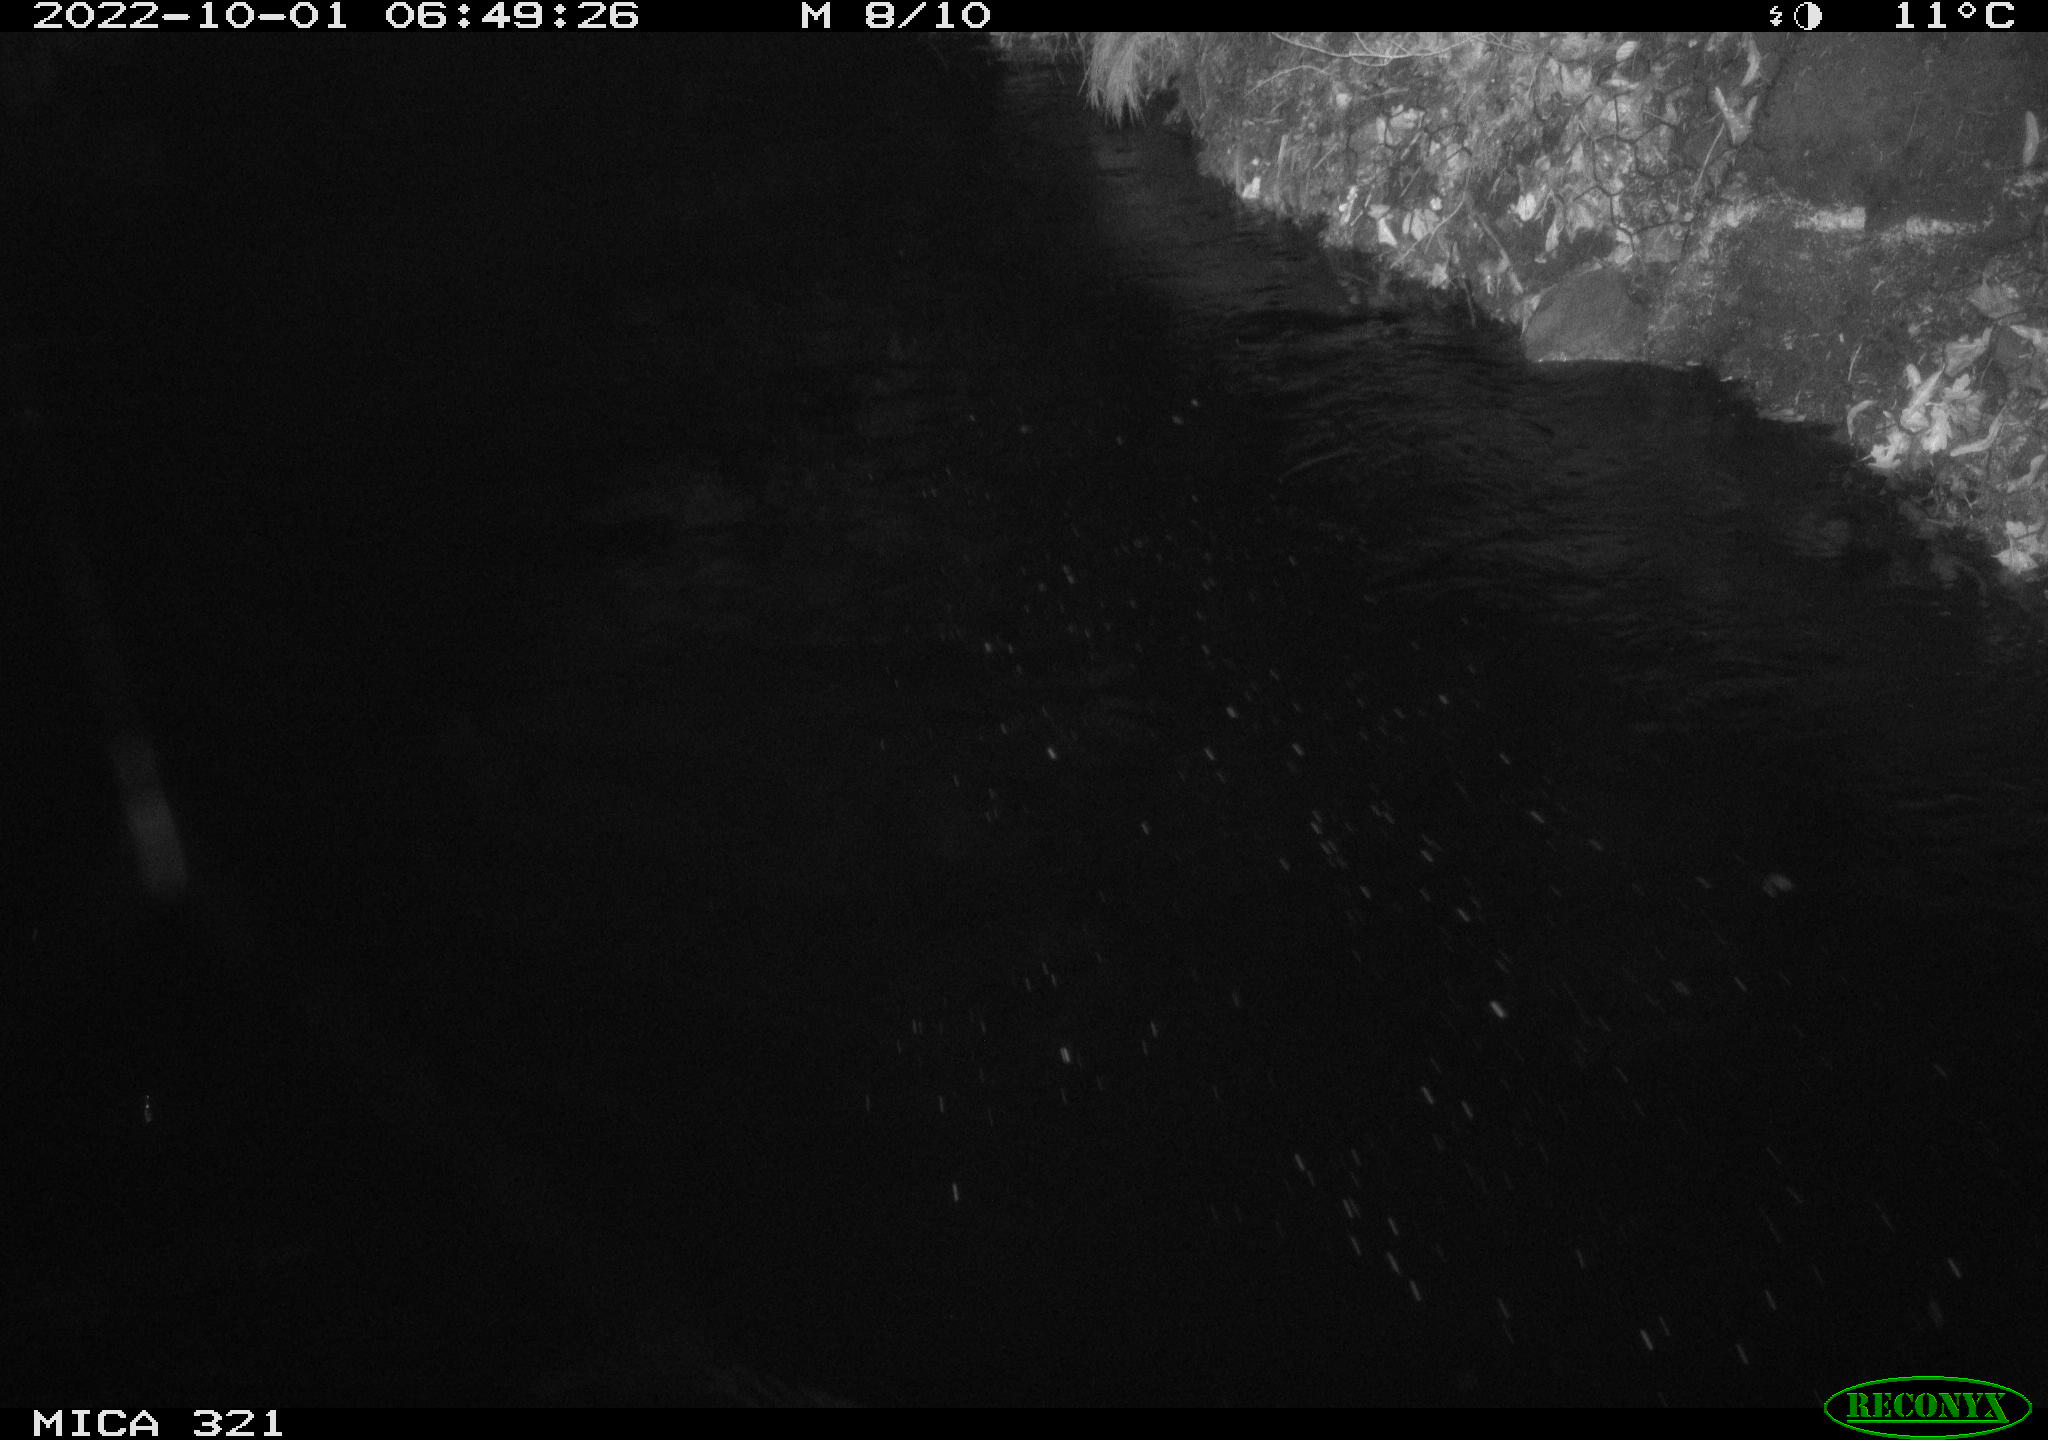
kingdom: Animalia
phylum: Chordata
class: Aves
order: Anseriformes
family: Anatidae
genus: Anas
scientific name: Anas
